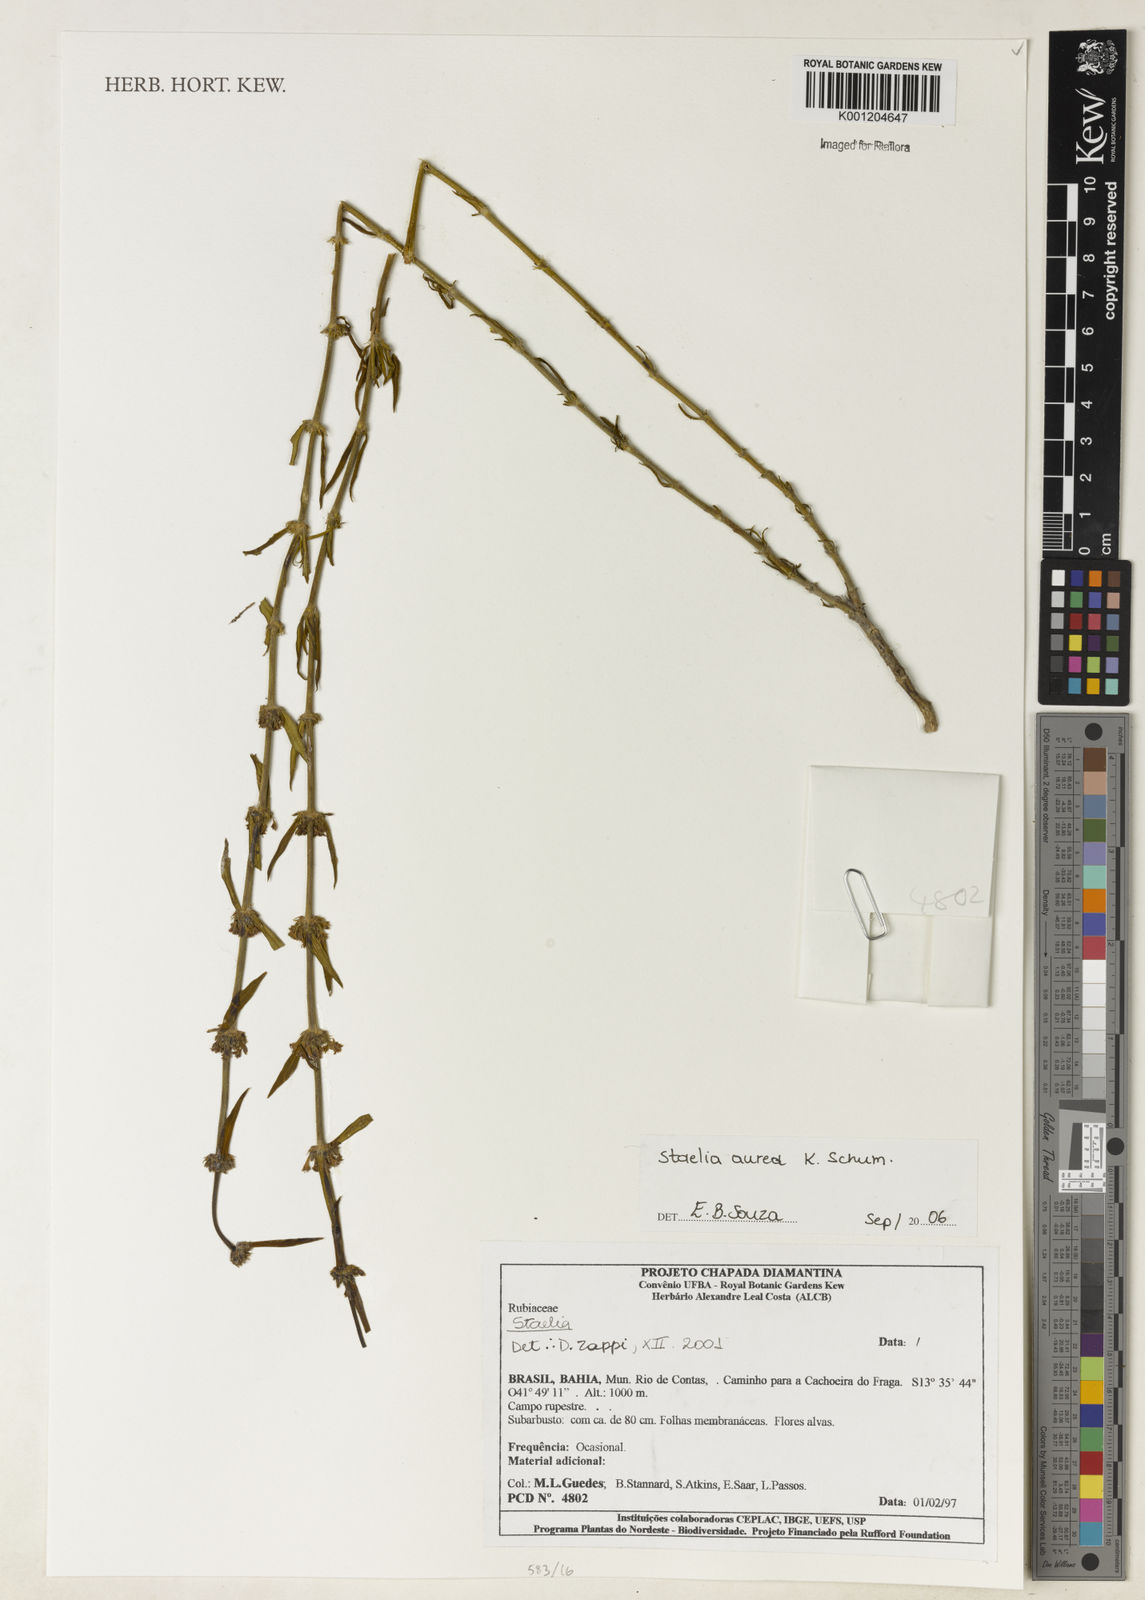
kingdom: Plantae
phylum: Tracheophyta
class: Magnoliopsida
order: Gentianales
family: Rubiaceae
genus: Staelia
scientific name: Staelia aurea
